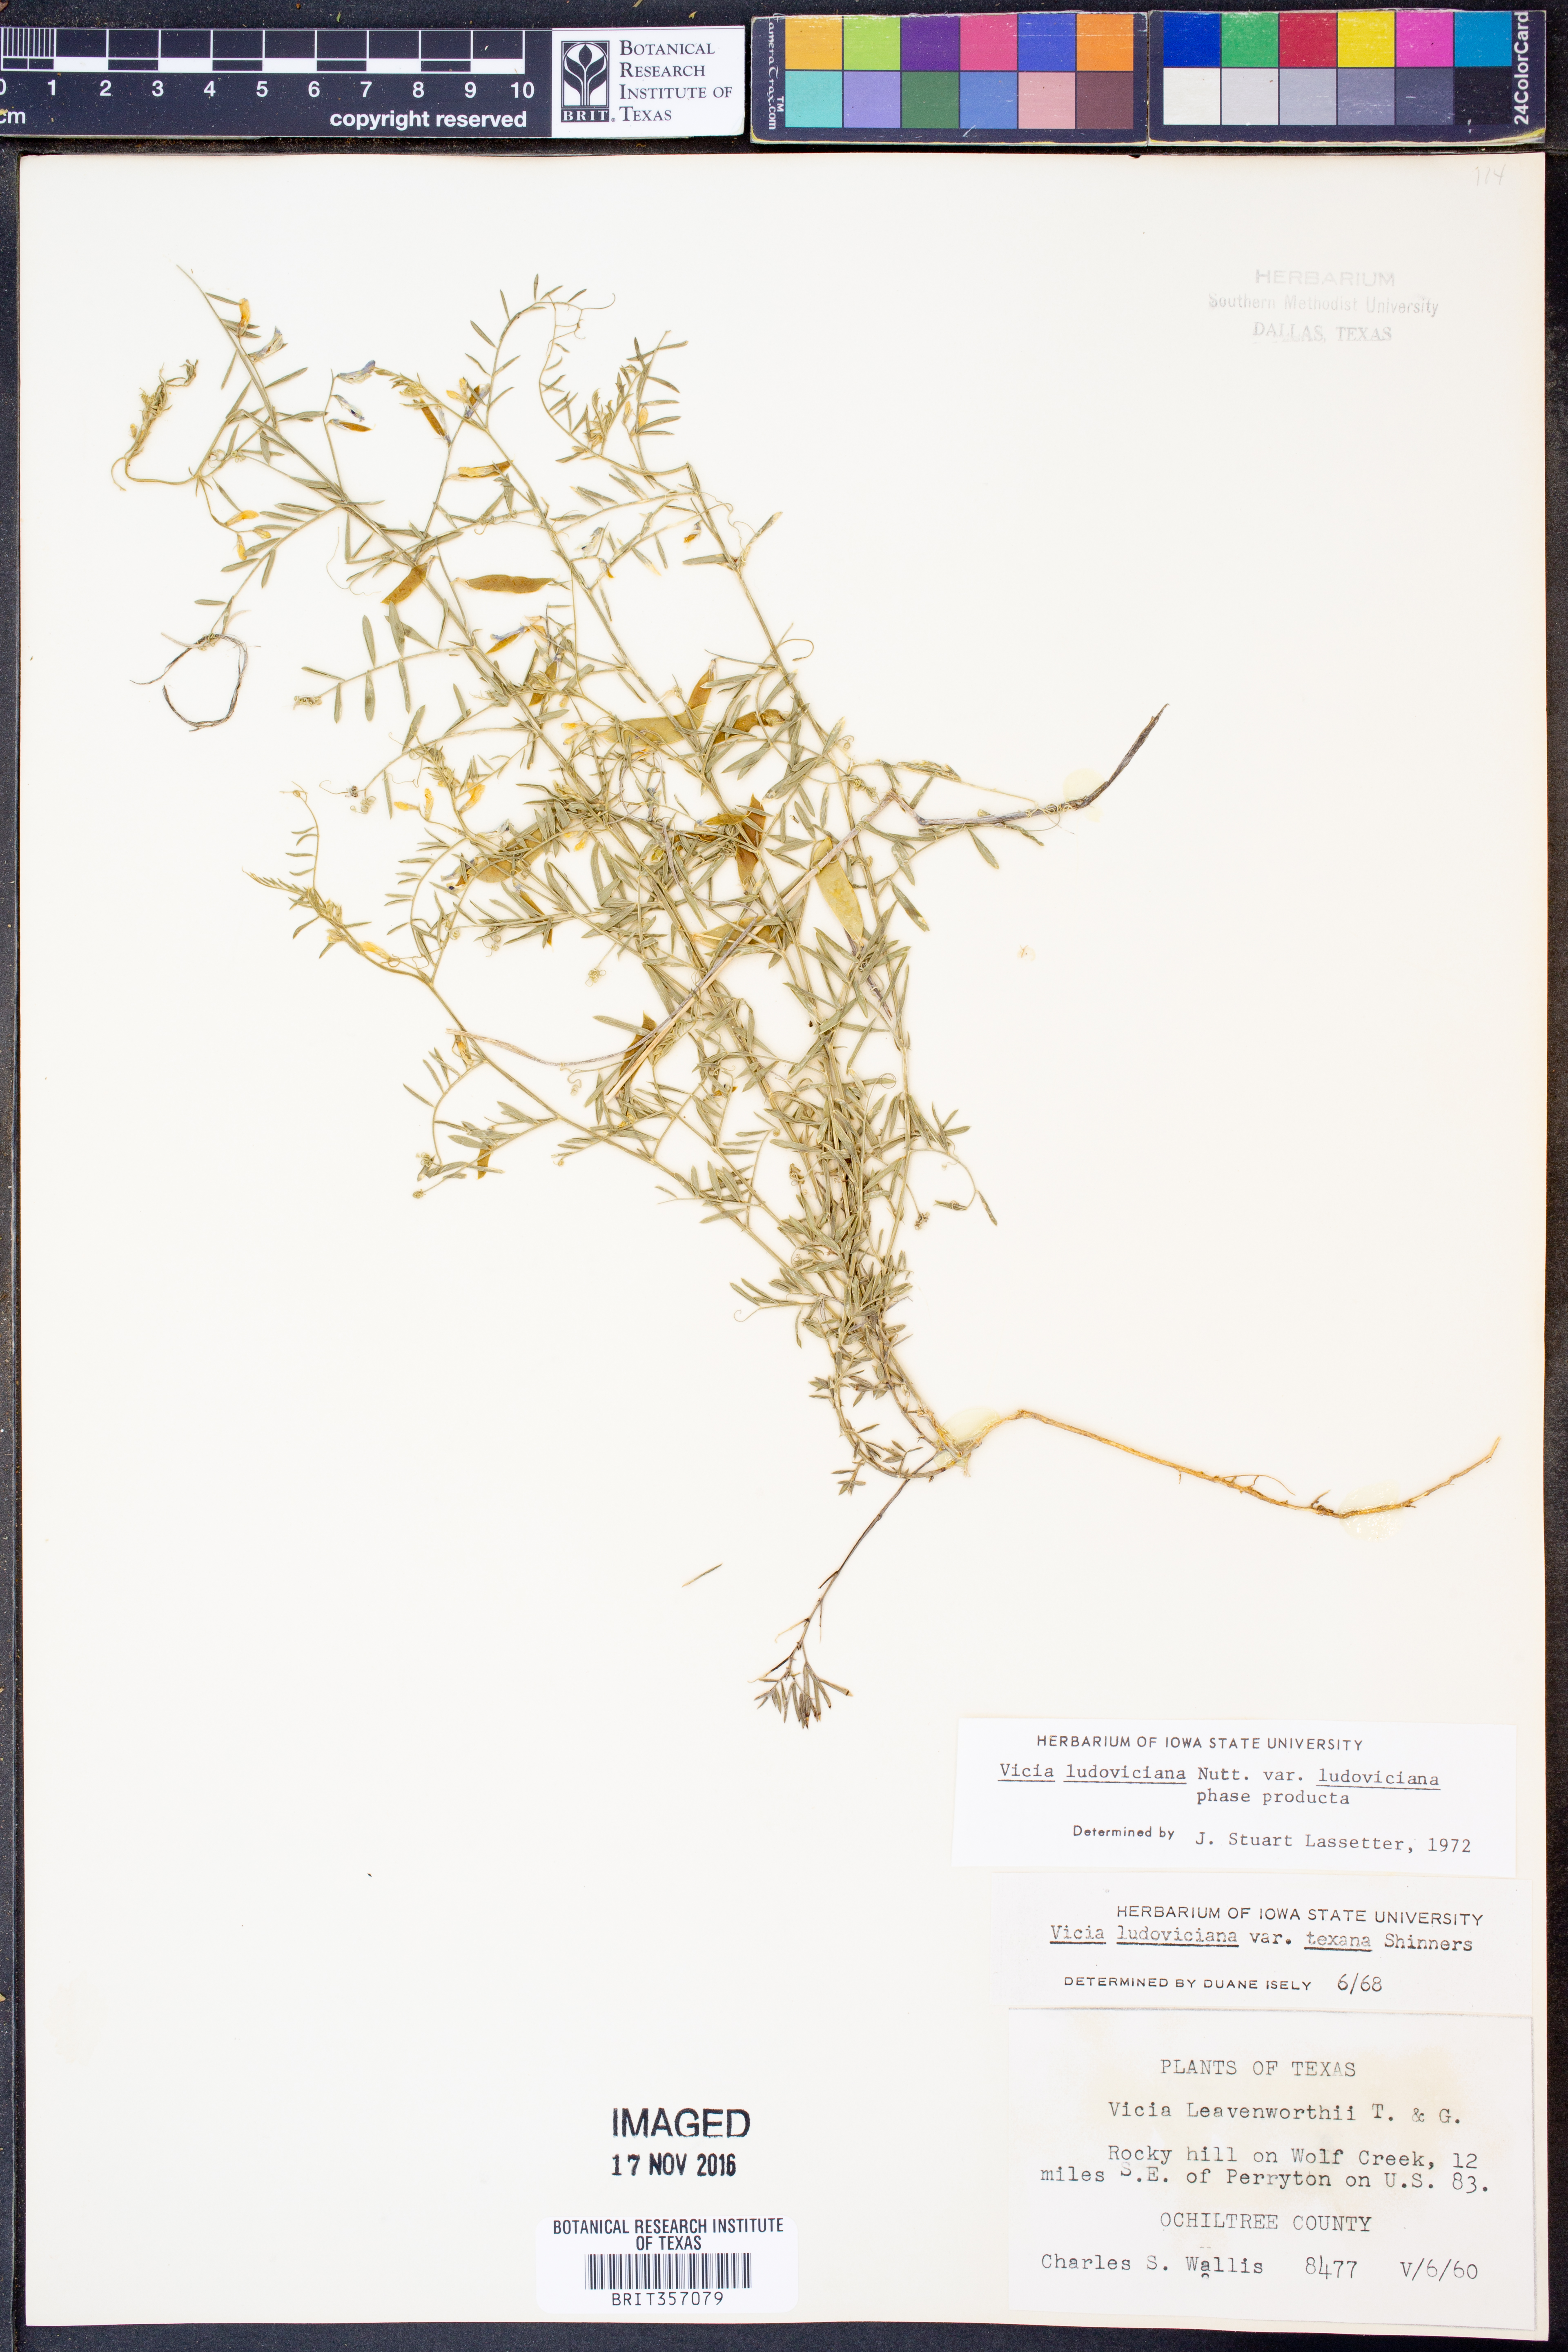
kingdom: Plantae
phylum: Tracheophyta
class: Magnoliopsida
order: Fabales
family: Fabaceae
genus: Vicia
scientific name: Vicia ludoviciana
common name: Louisiana vetch
